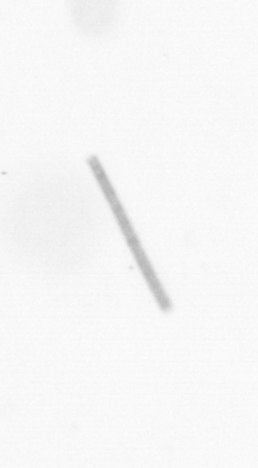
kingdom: Chromista
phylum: Ochrophyta
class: Bacillariophyceae
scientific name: Bacillariophyceae
